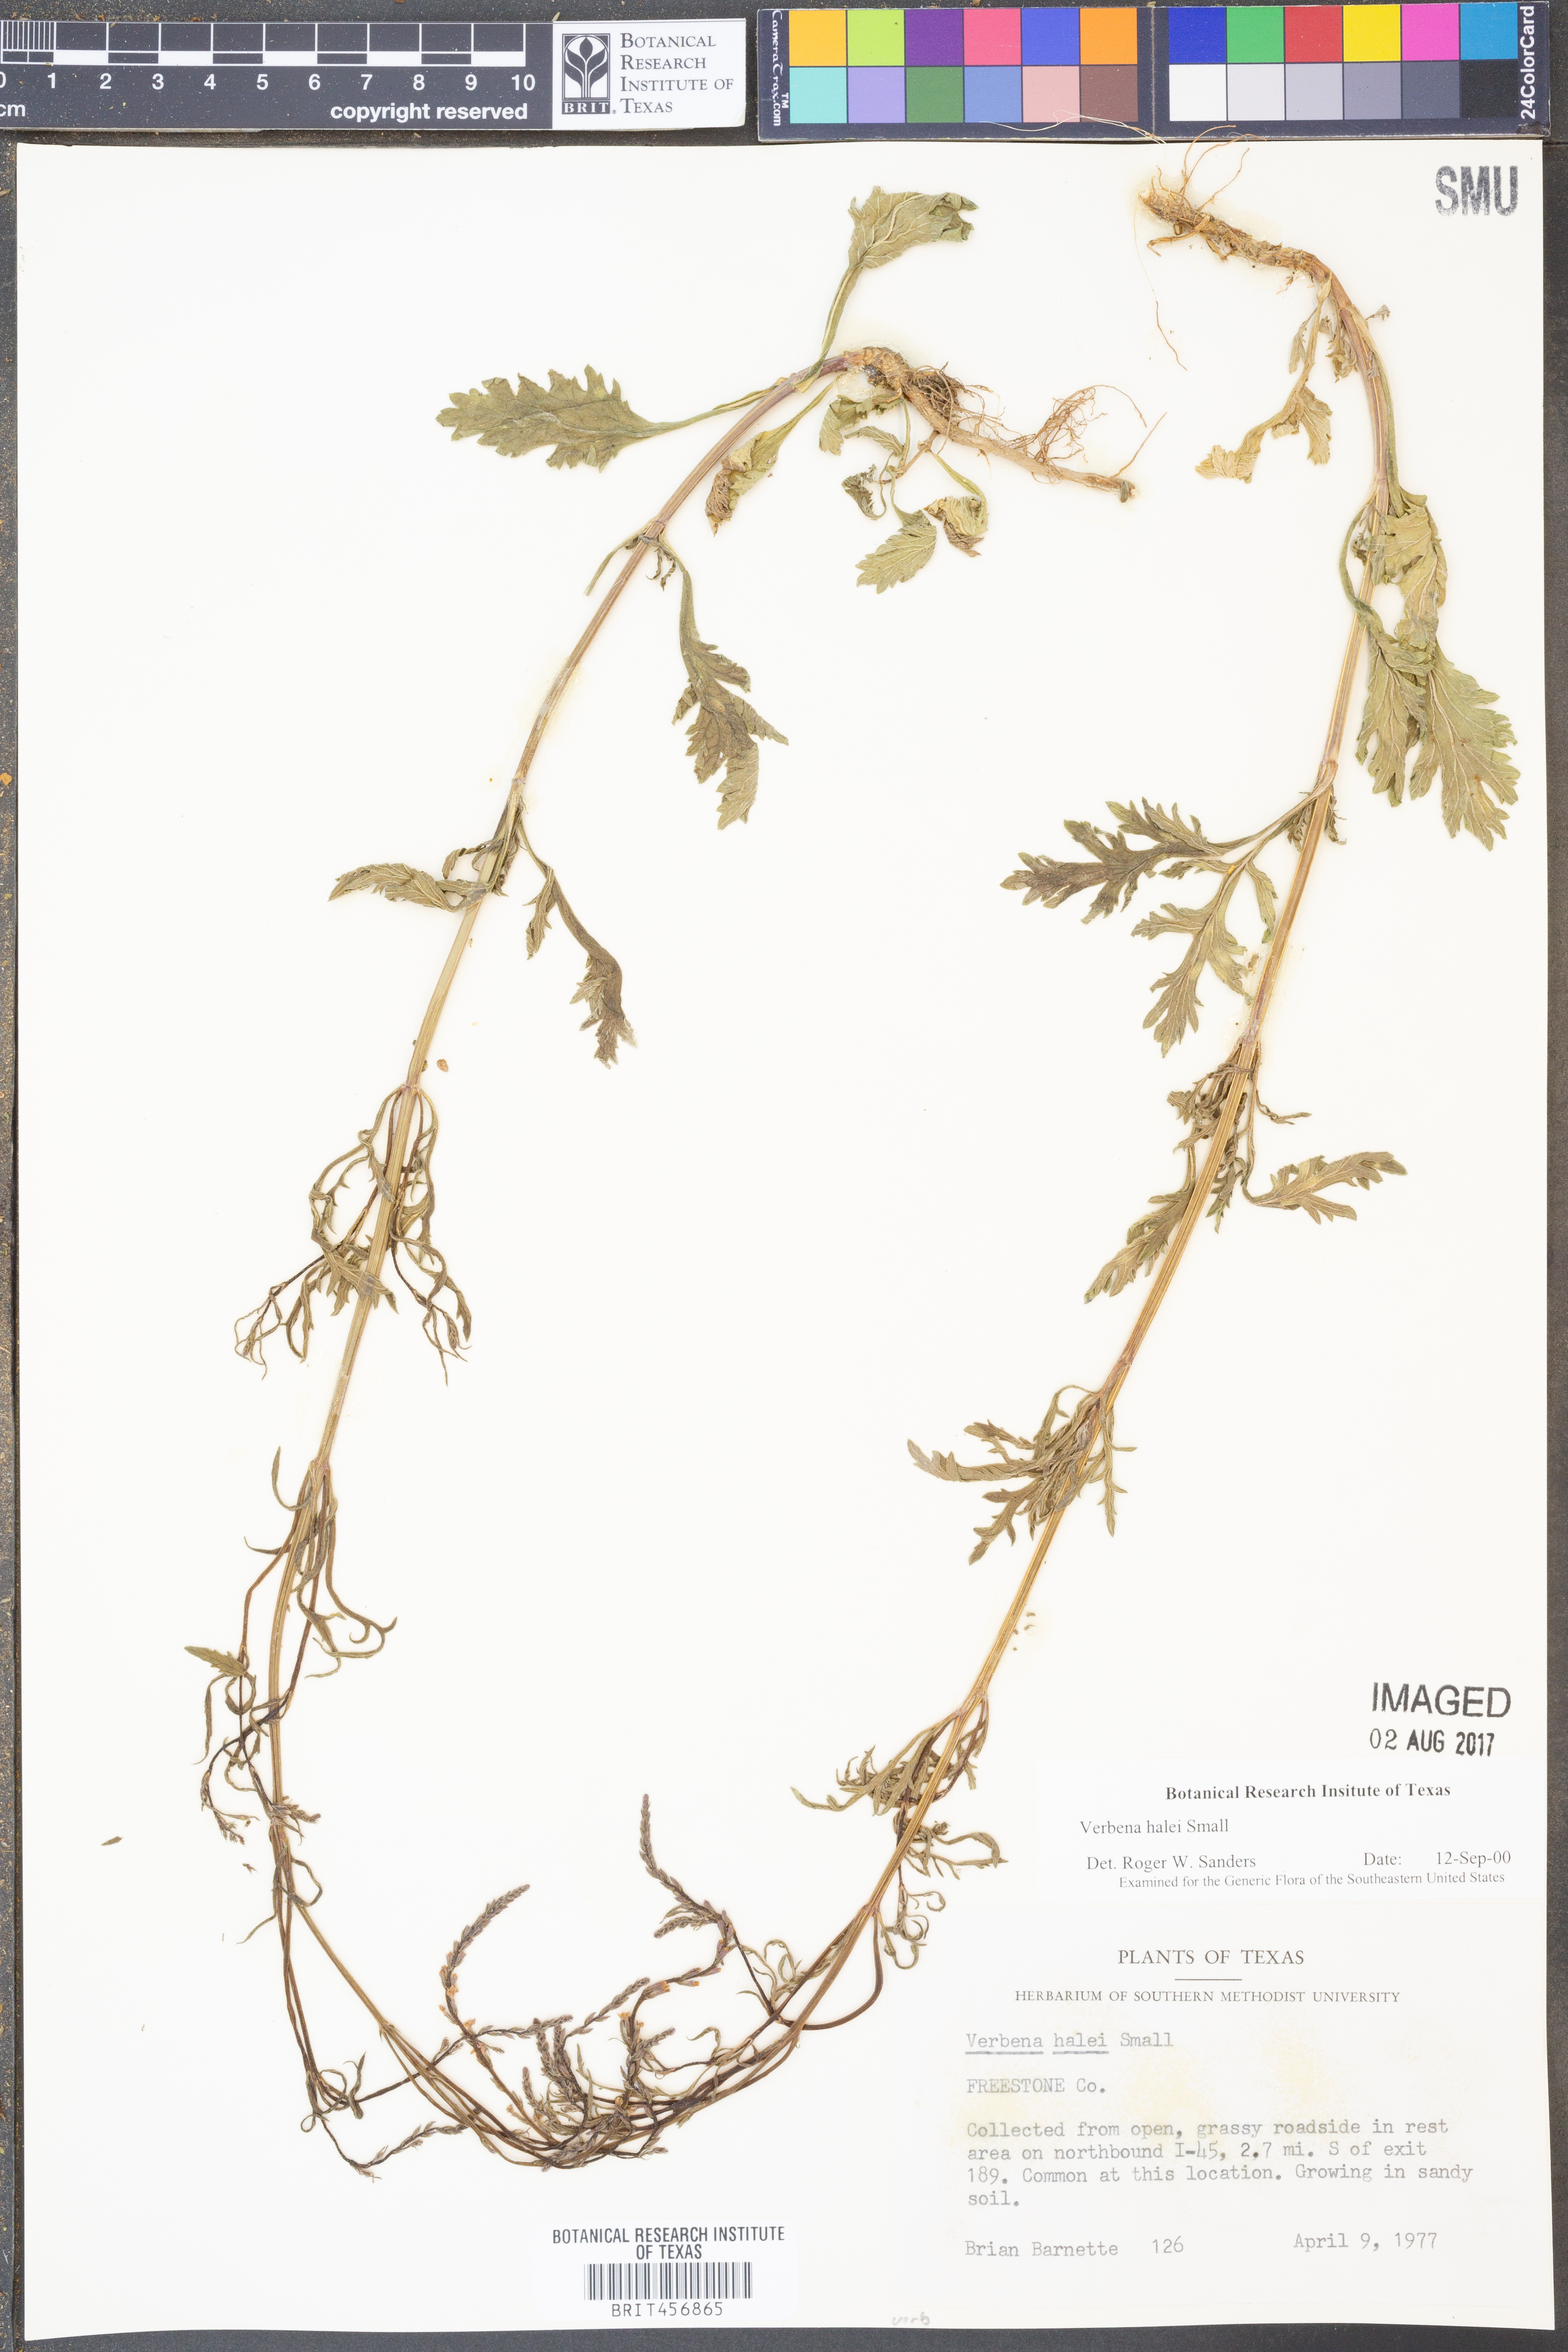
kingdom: Plantae
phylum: Tracheophyta
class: Magnoliopsida
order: Lamiales
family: Verbenaceae
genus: Verbena
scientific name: Verbena halei
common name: Texas vervain
